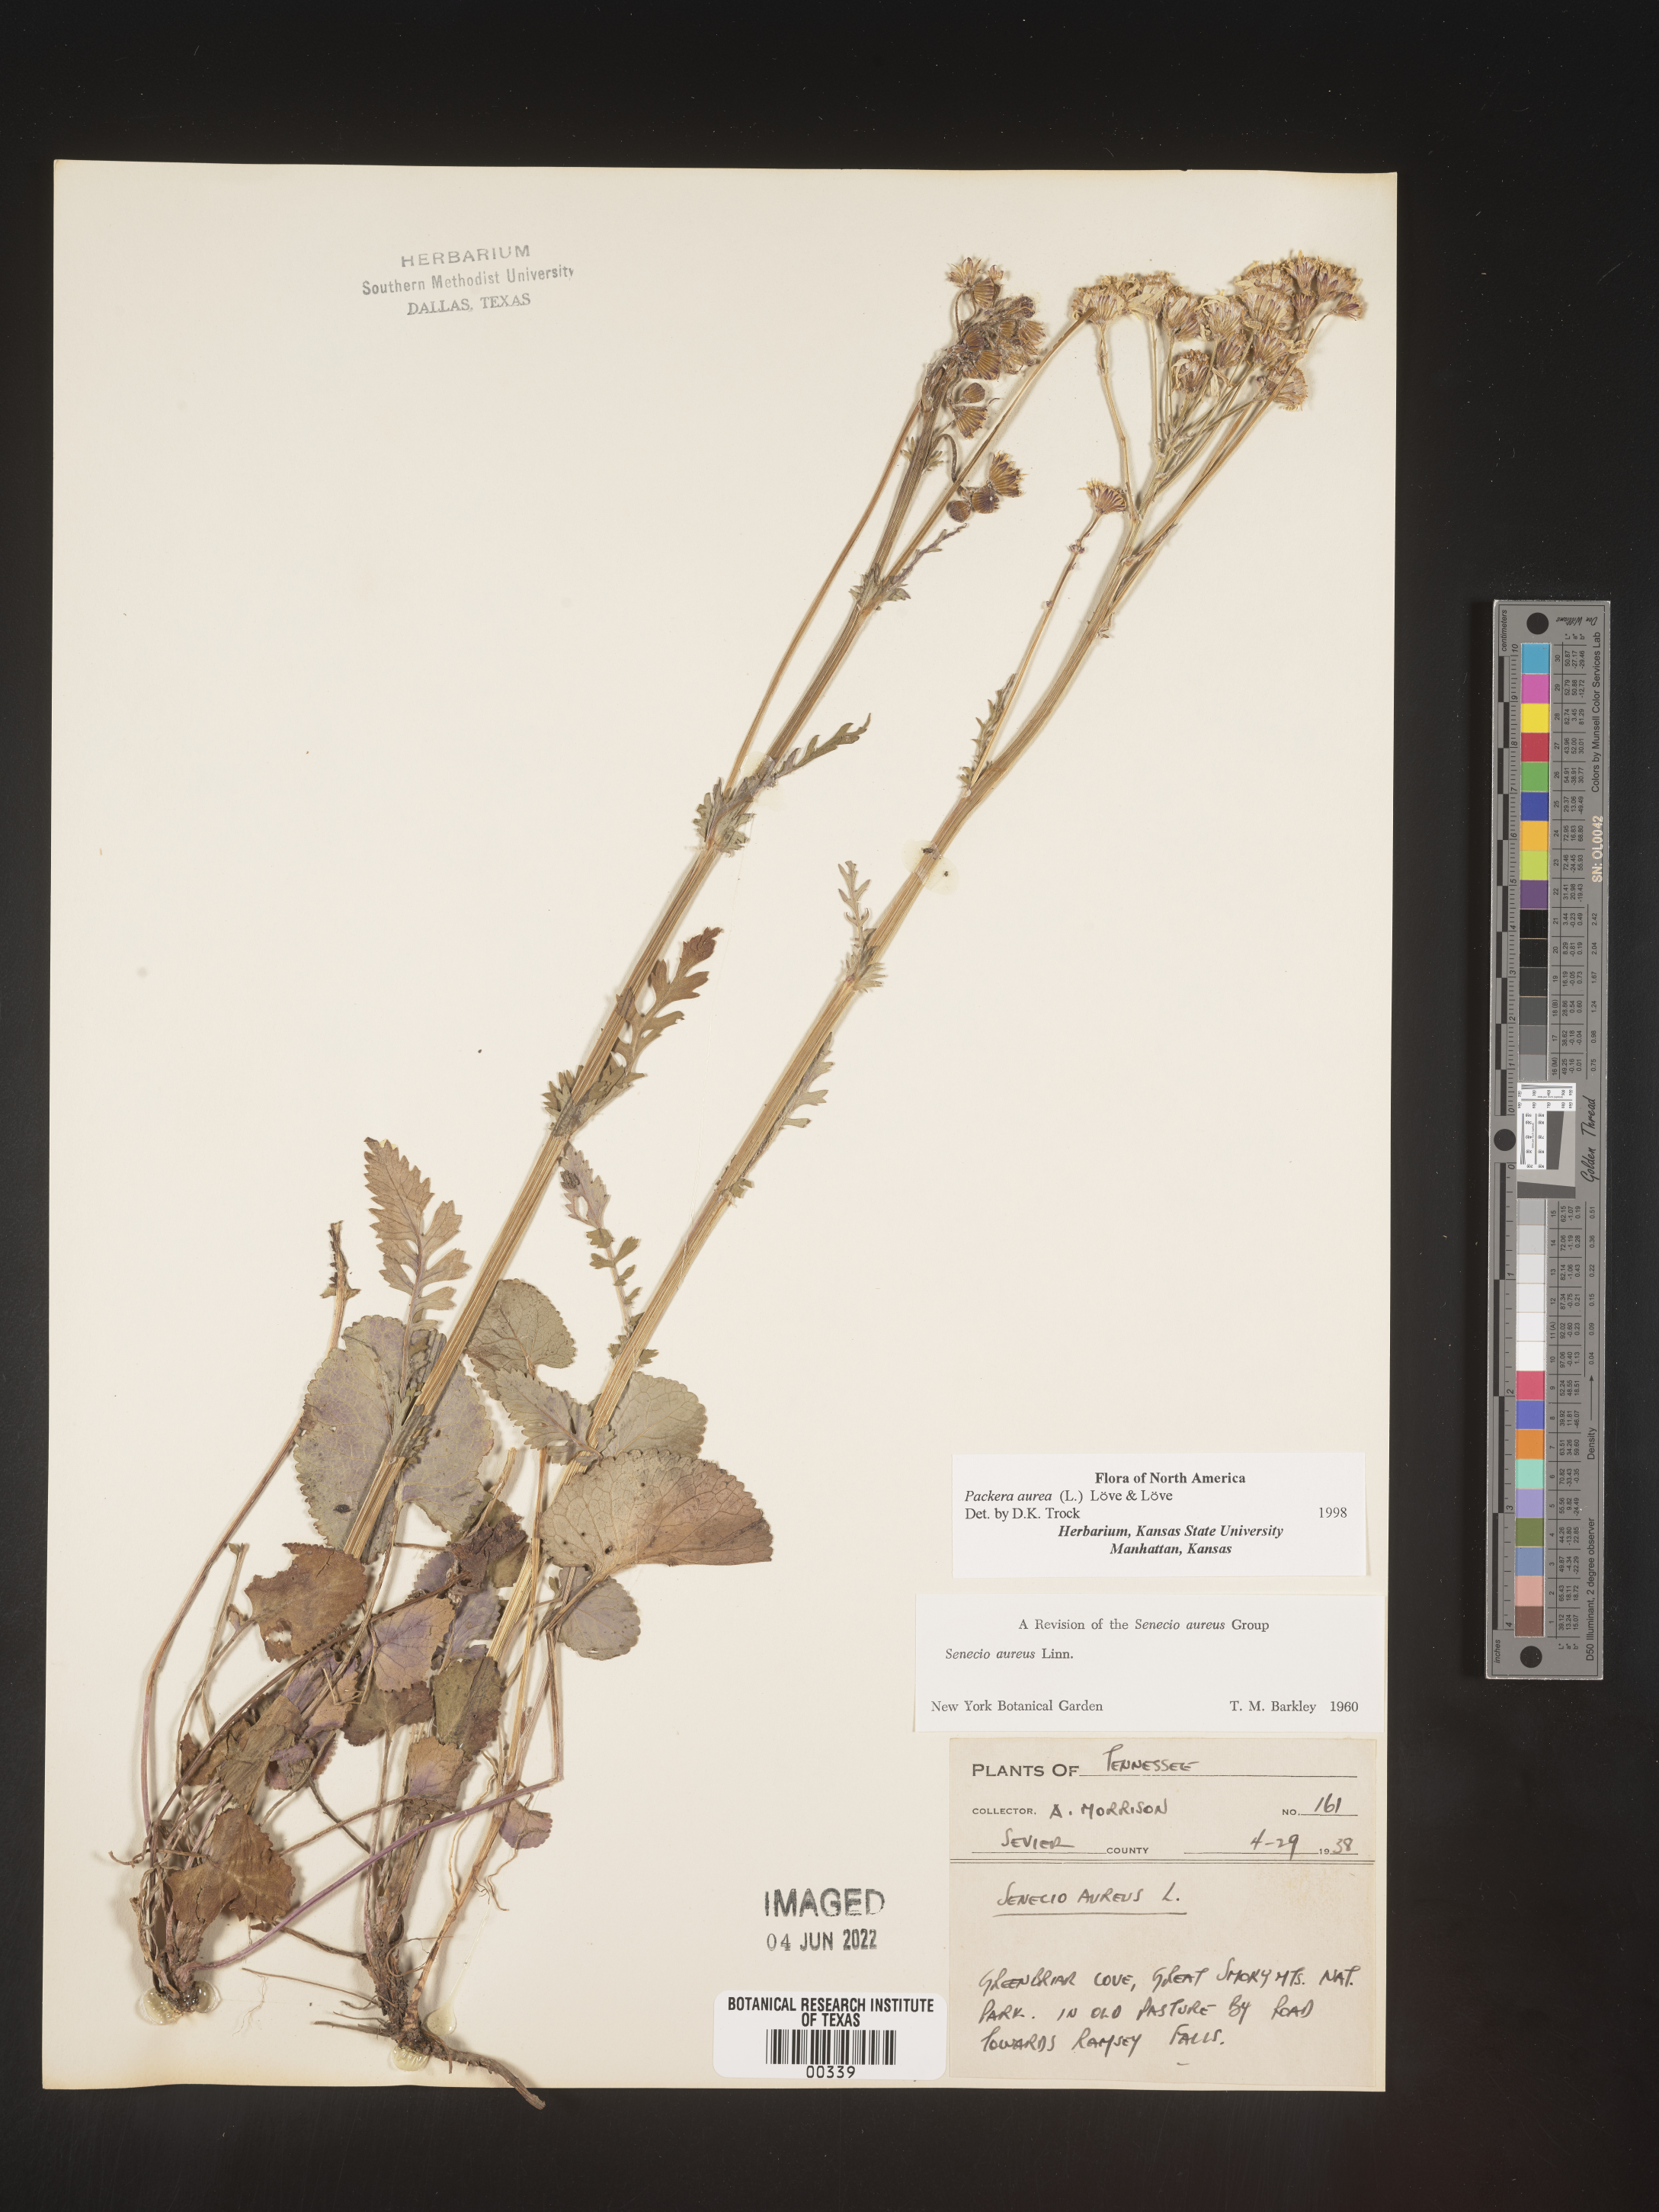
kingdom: Plantae
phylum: Tracheophyta
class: Magnoliopsida
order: Asterales
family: Asteraceae
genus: Packera
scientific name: Packera aurea
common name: Golden groundsel
